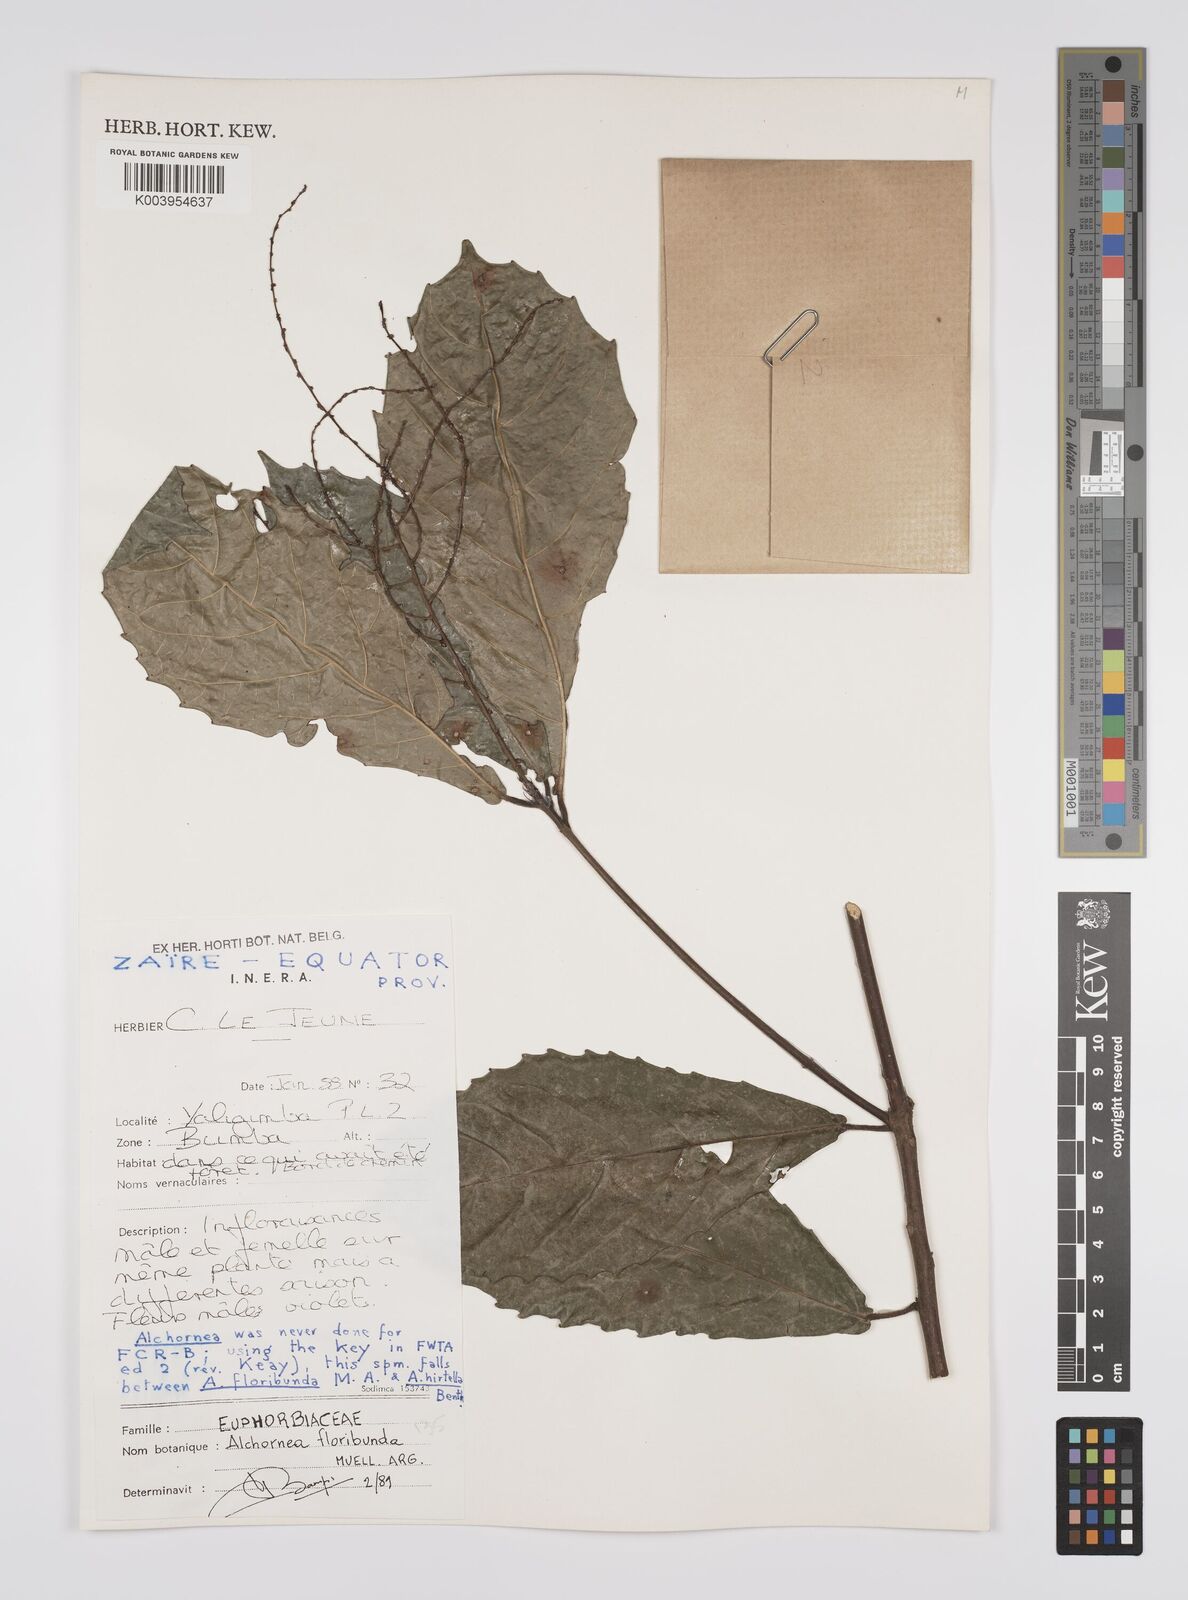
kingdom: Plantae
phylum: Tracheophyta
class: Magnoliopsida
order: Malpighiales
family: Euphorbiaceae
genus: Alchornea
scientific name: Alchornea floribunda
